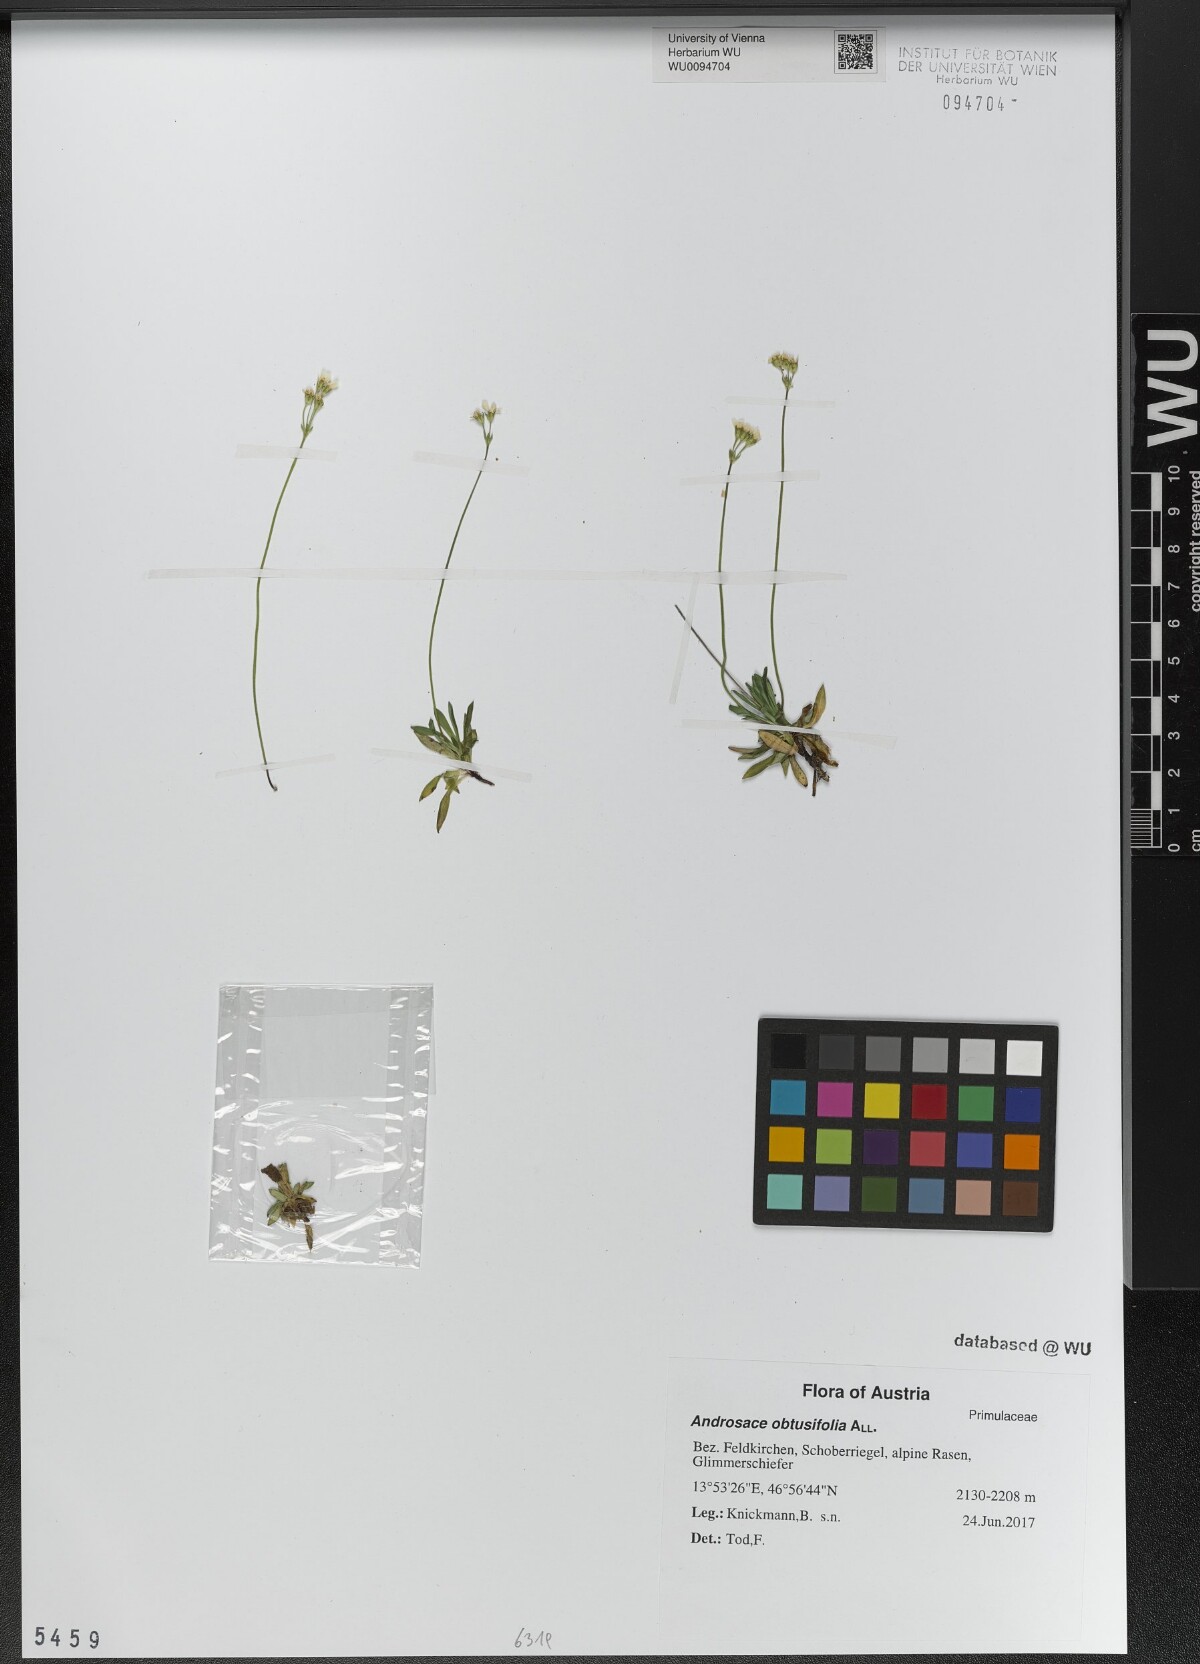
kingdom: Plantae
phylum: Tracheophyta
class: Magnoliopsida
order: Ericales
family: Primulaceae
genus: Androsace
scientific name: Androsace obtusifolia
